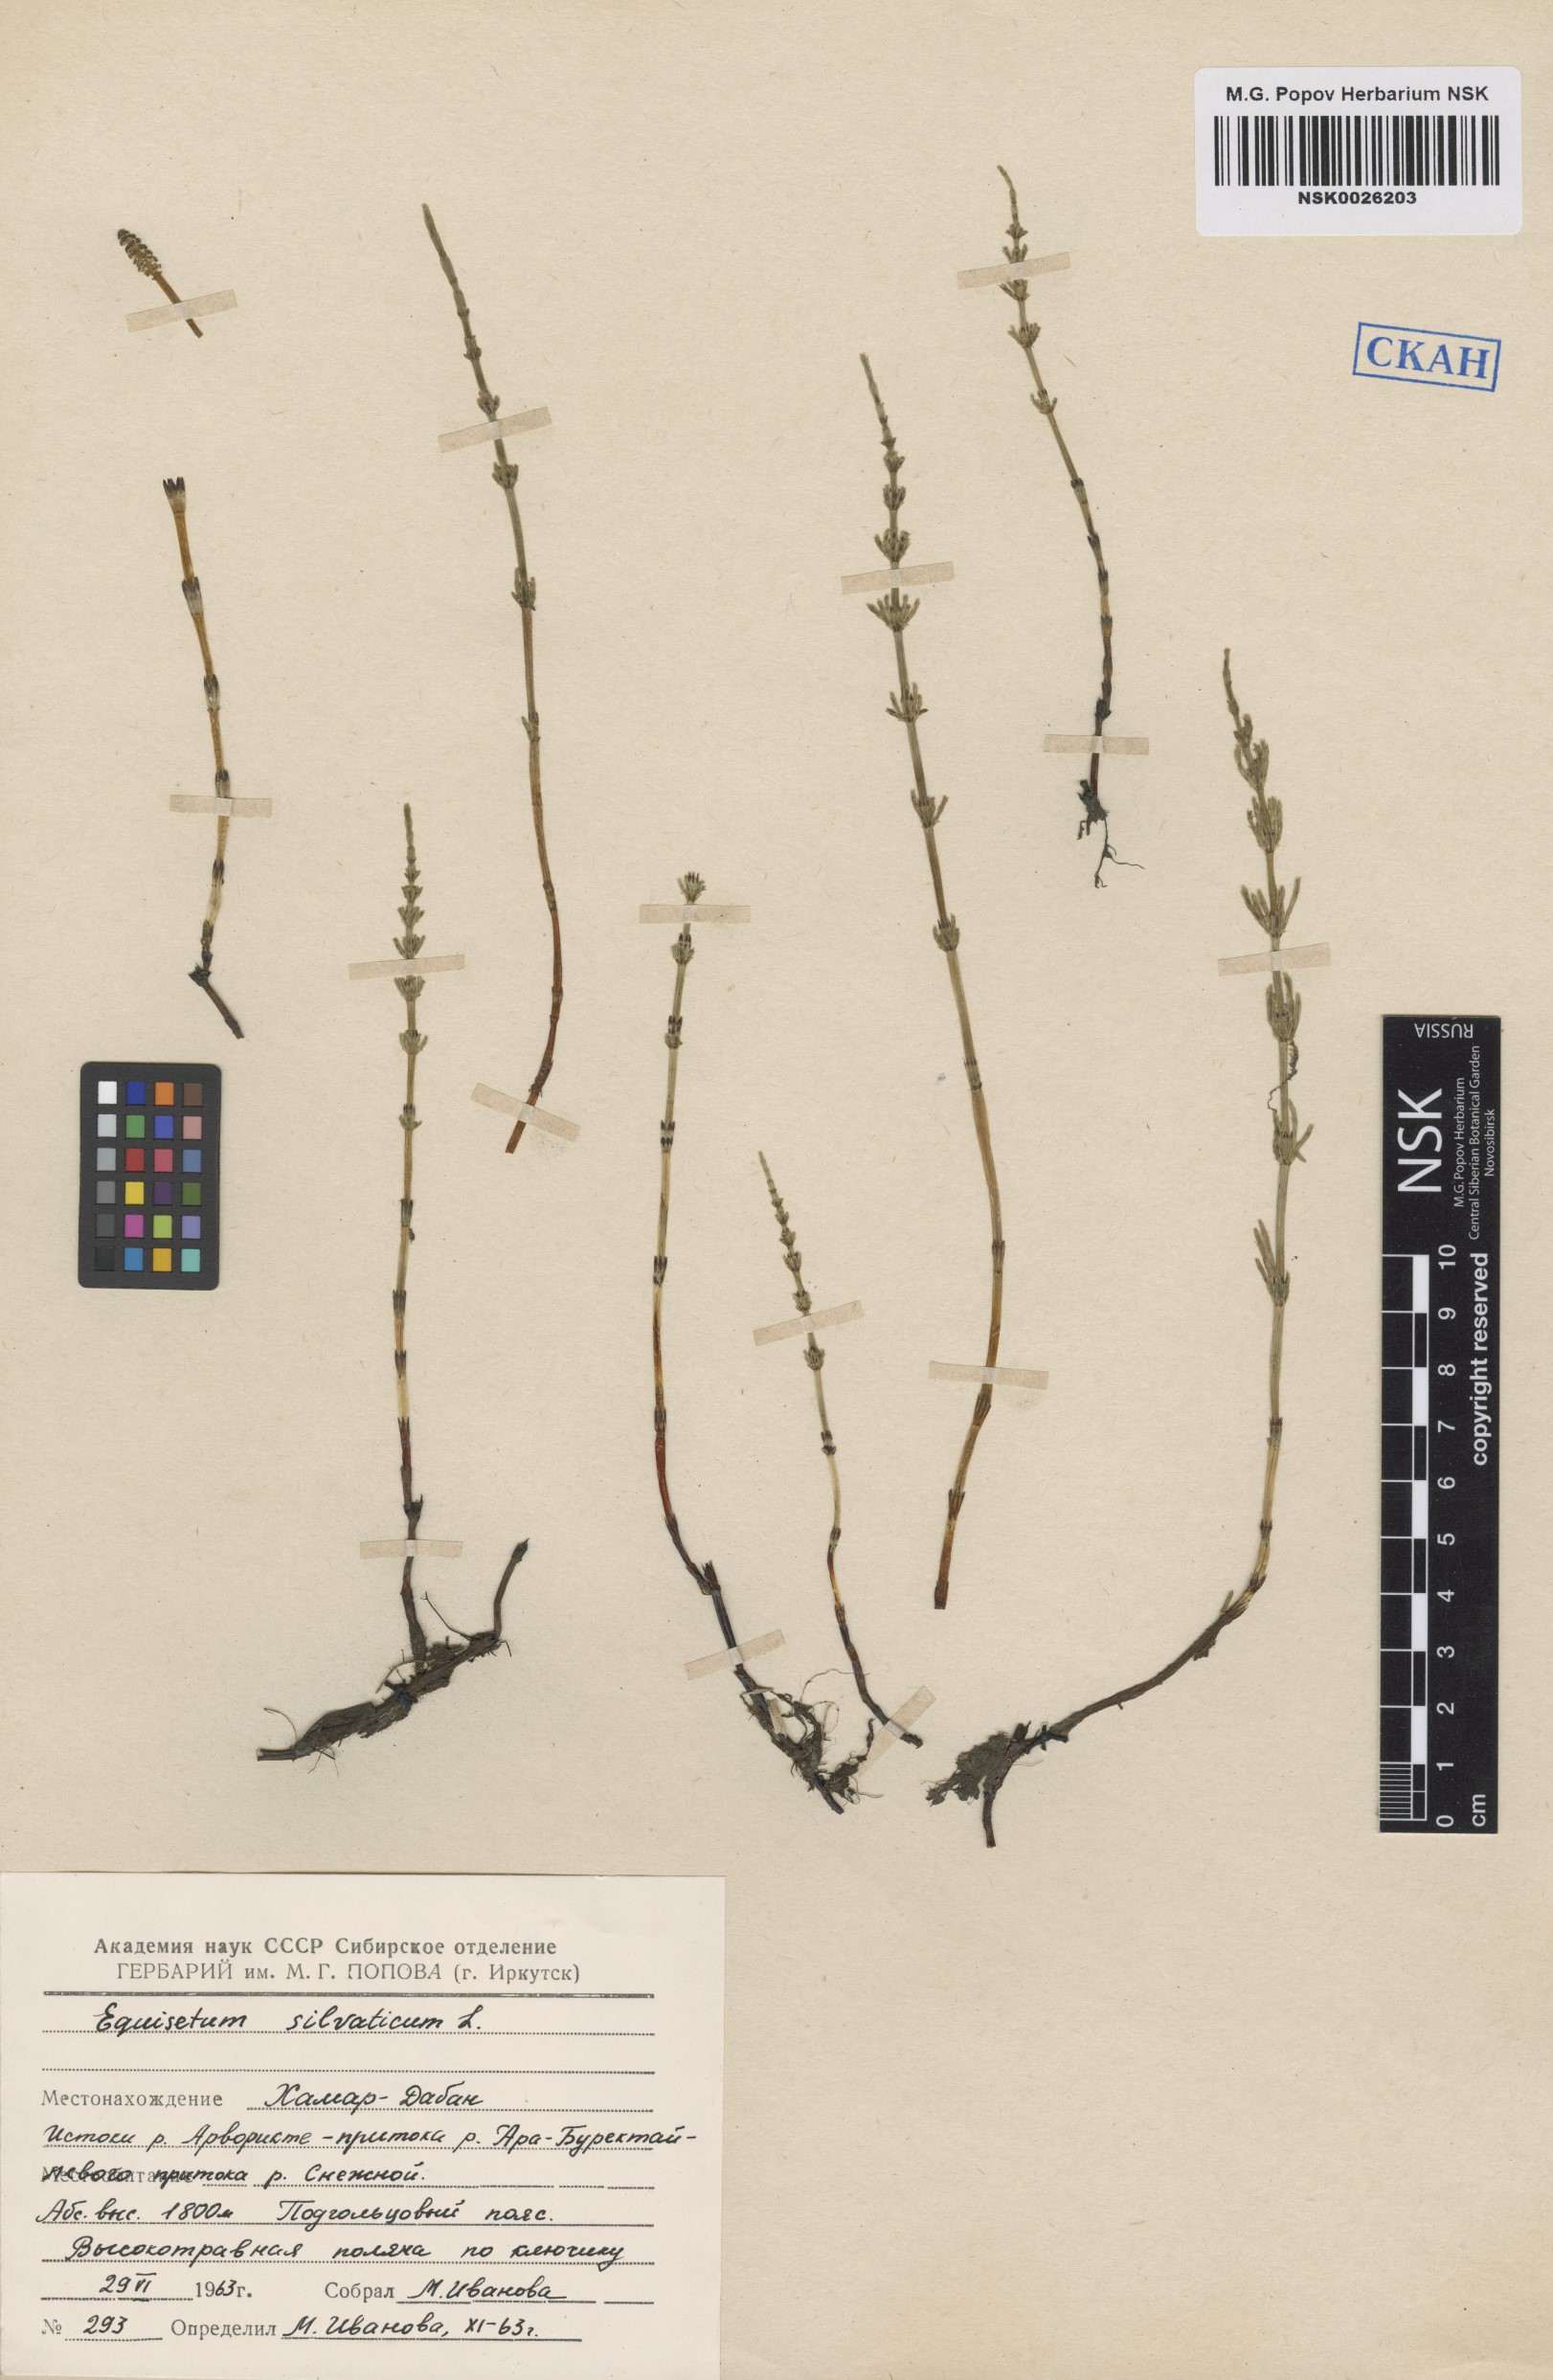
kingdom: Plantae
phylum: Tracheophyta
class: Polypodiopsida
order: Equisetales
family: Equisetaceae
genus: Equisetum
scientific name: Equisetum sylvaticum
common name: Wood horsetail
